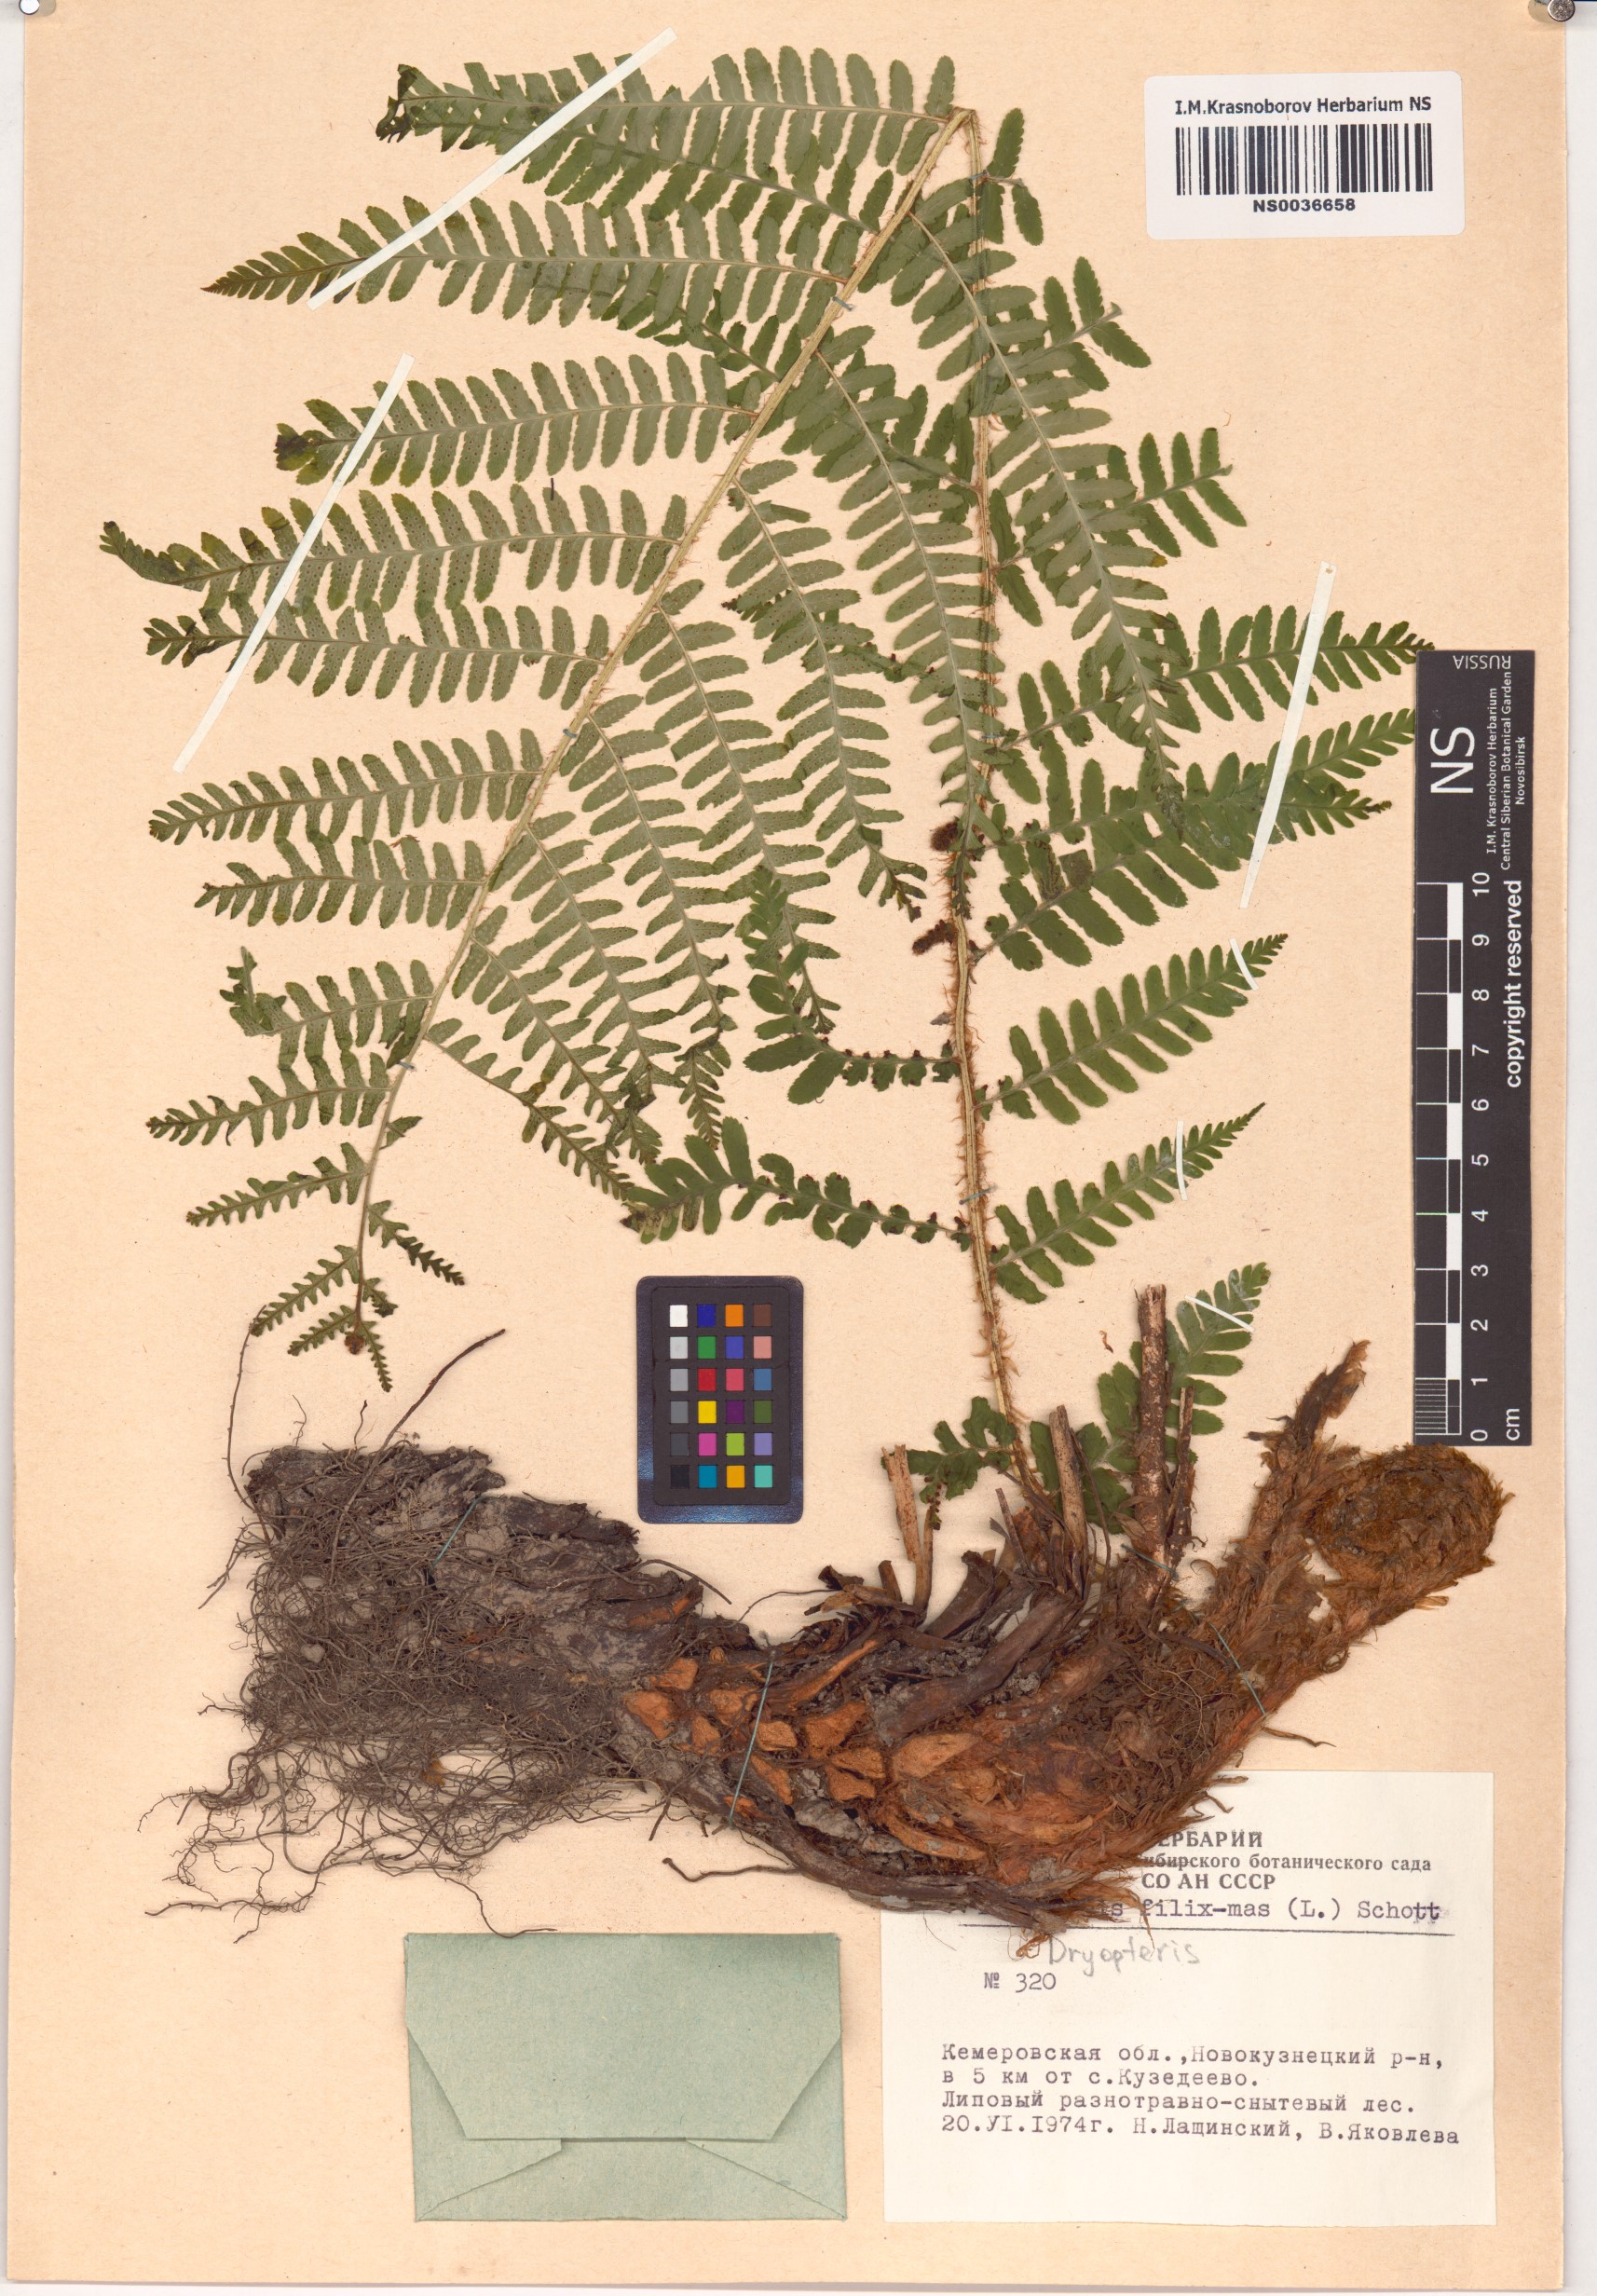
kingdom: Plantae
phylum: Tracheophyta
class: Polypodiopsida
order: Polypodiales
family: Dryopteridaceae
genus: Dryopteris
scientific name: Dryopteris filix-mas
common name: Male fern
